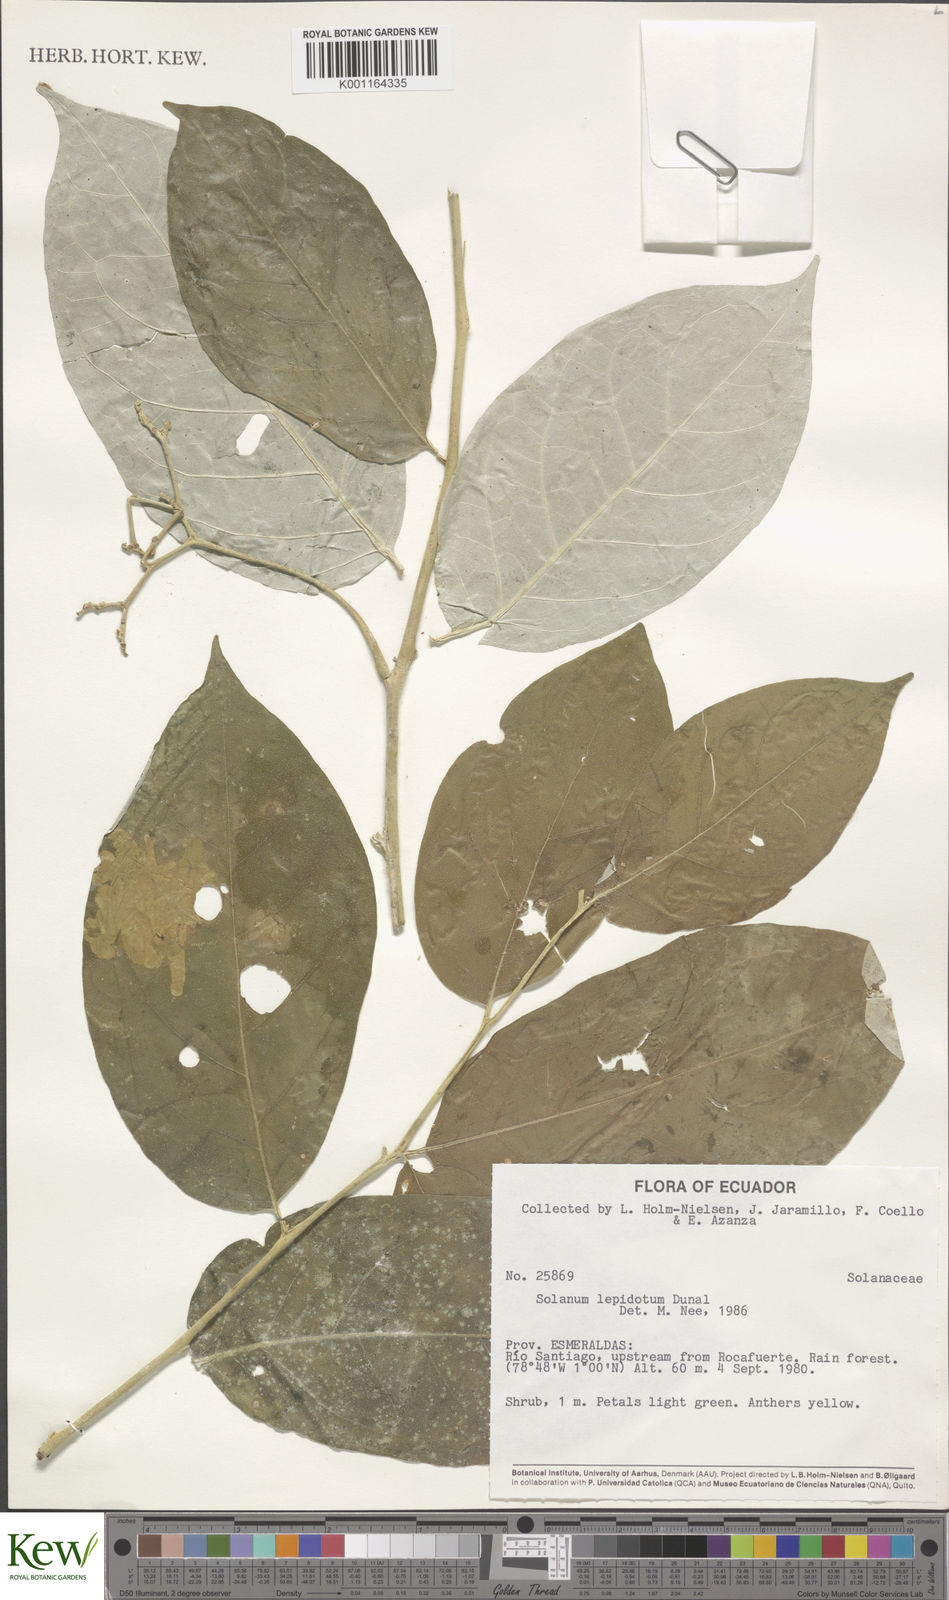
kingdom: Plantae
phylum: Tracheophyta
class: Magnoliopsida
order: Solanales
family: Solanaceae
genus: Solanum
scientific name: Solanum lepidotum
